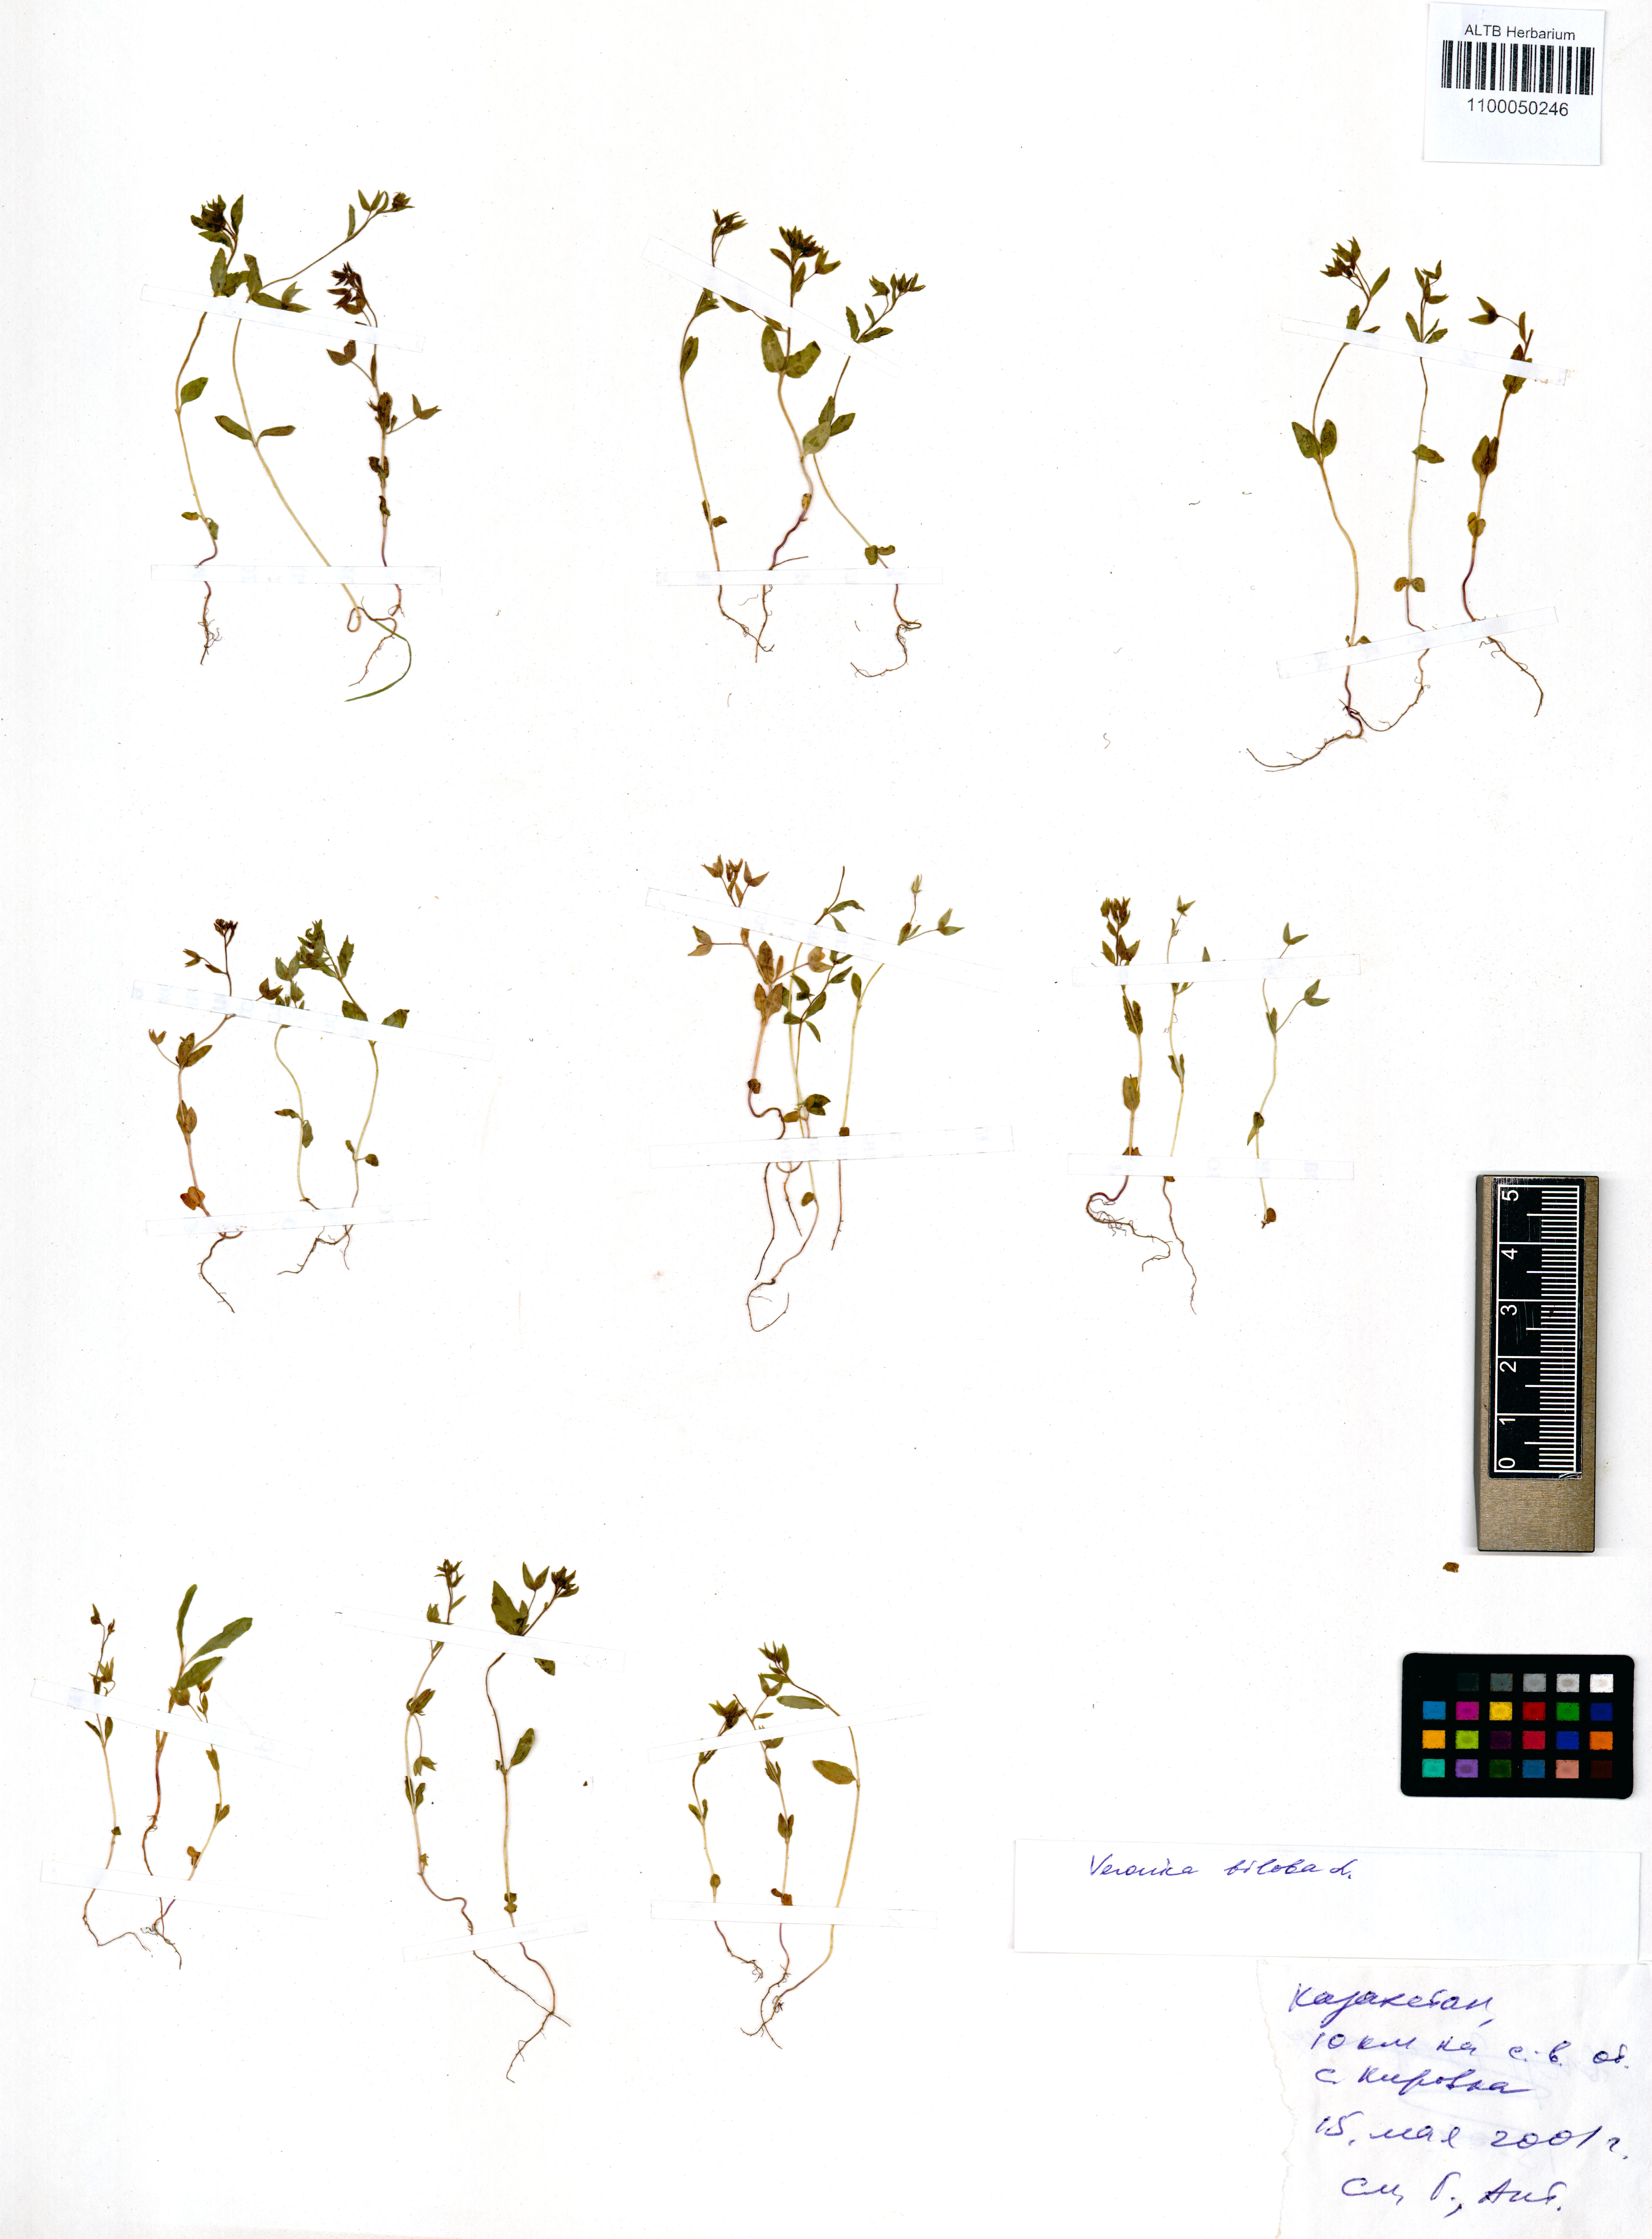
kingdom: Plantae
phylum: Tracheophyta
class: Magnoliopsida
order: Lamiales
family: Plantaginaceae
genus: Veronica
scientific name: Veronica biloba
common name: Twolobe speedwell
